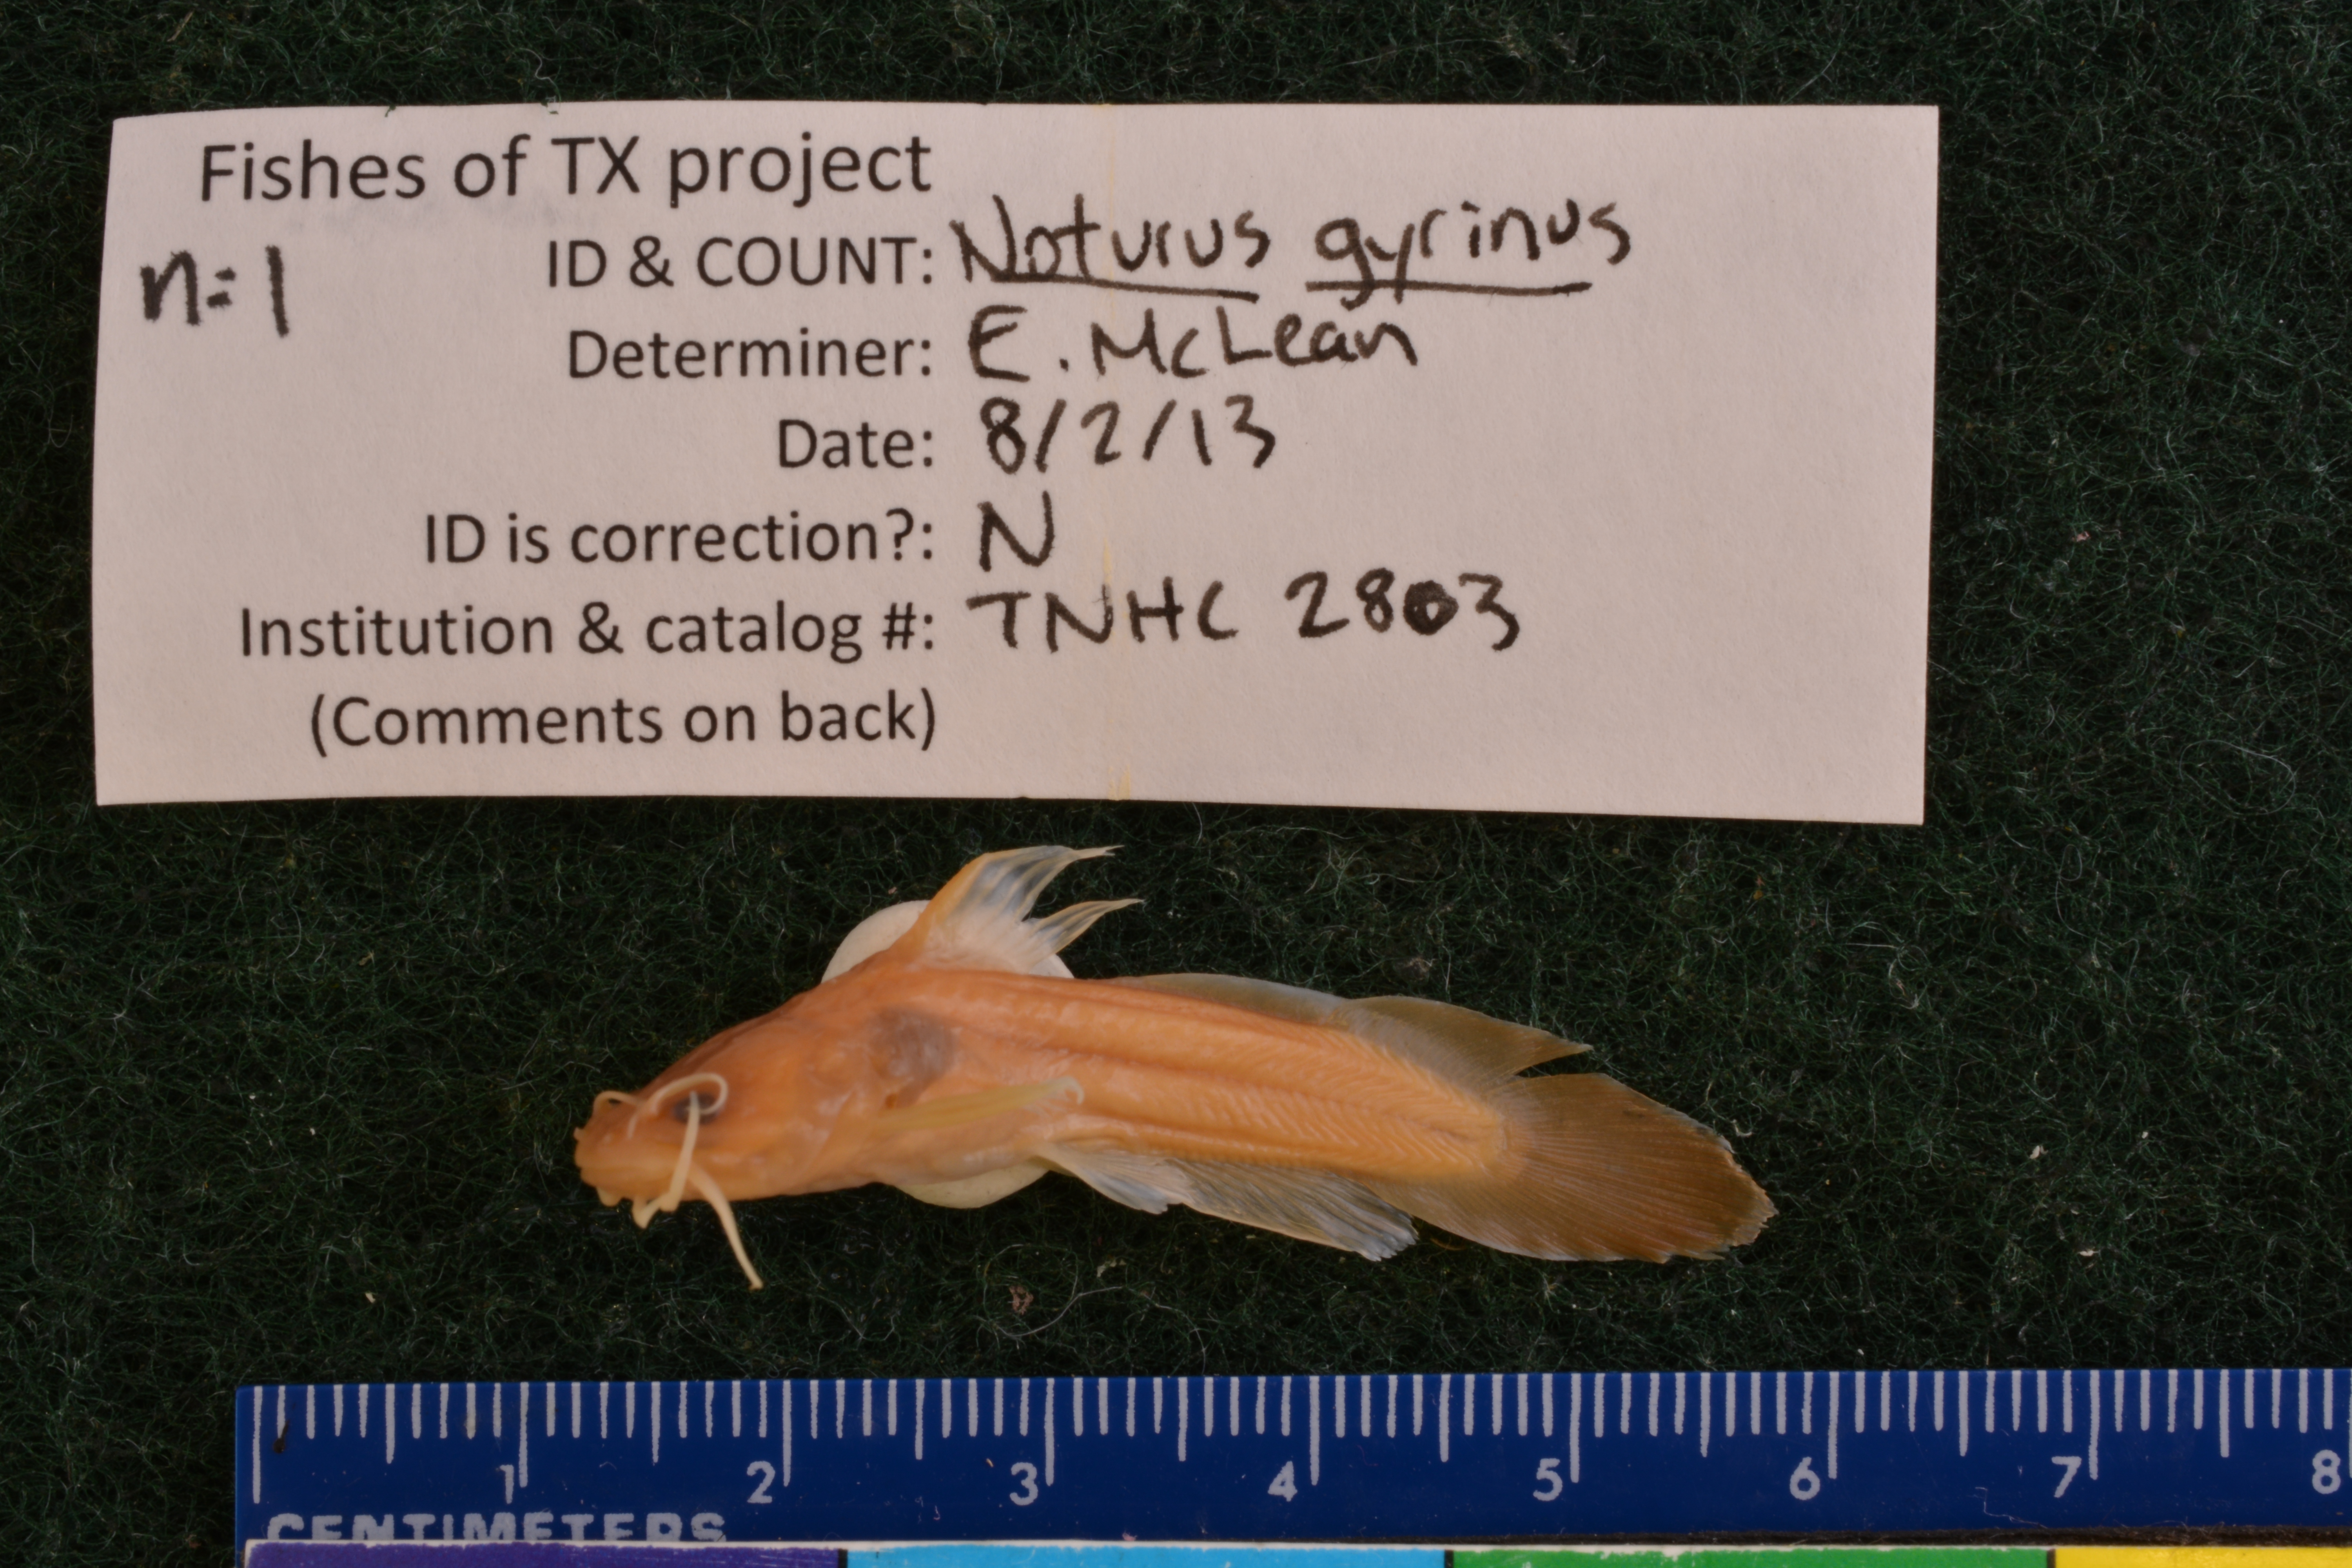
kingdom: Animalia
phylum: Chordata
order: Siluriformes
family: Ictaluridae
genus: Noturus
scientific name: Noturus gyrinus
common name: Tadpole madtom
